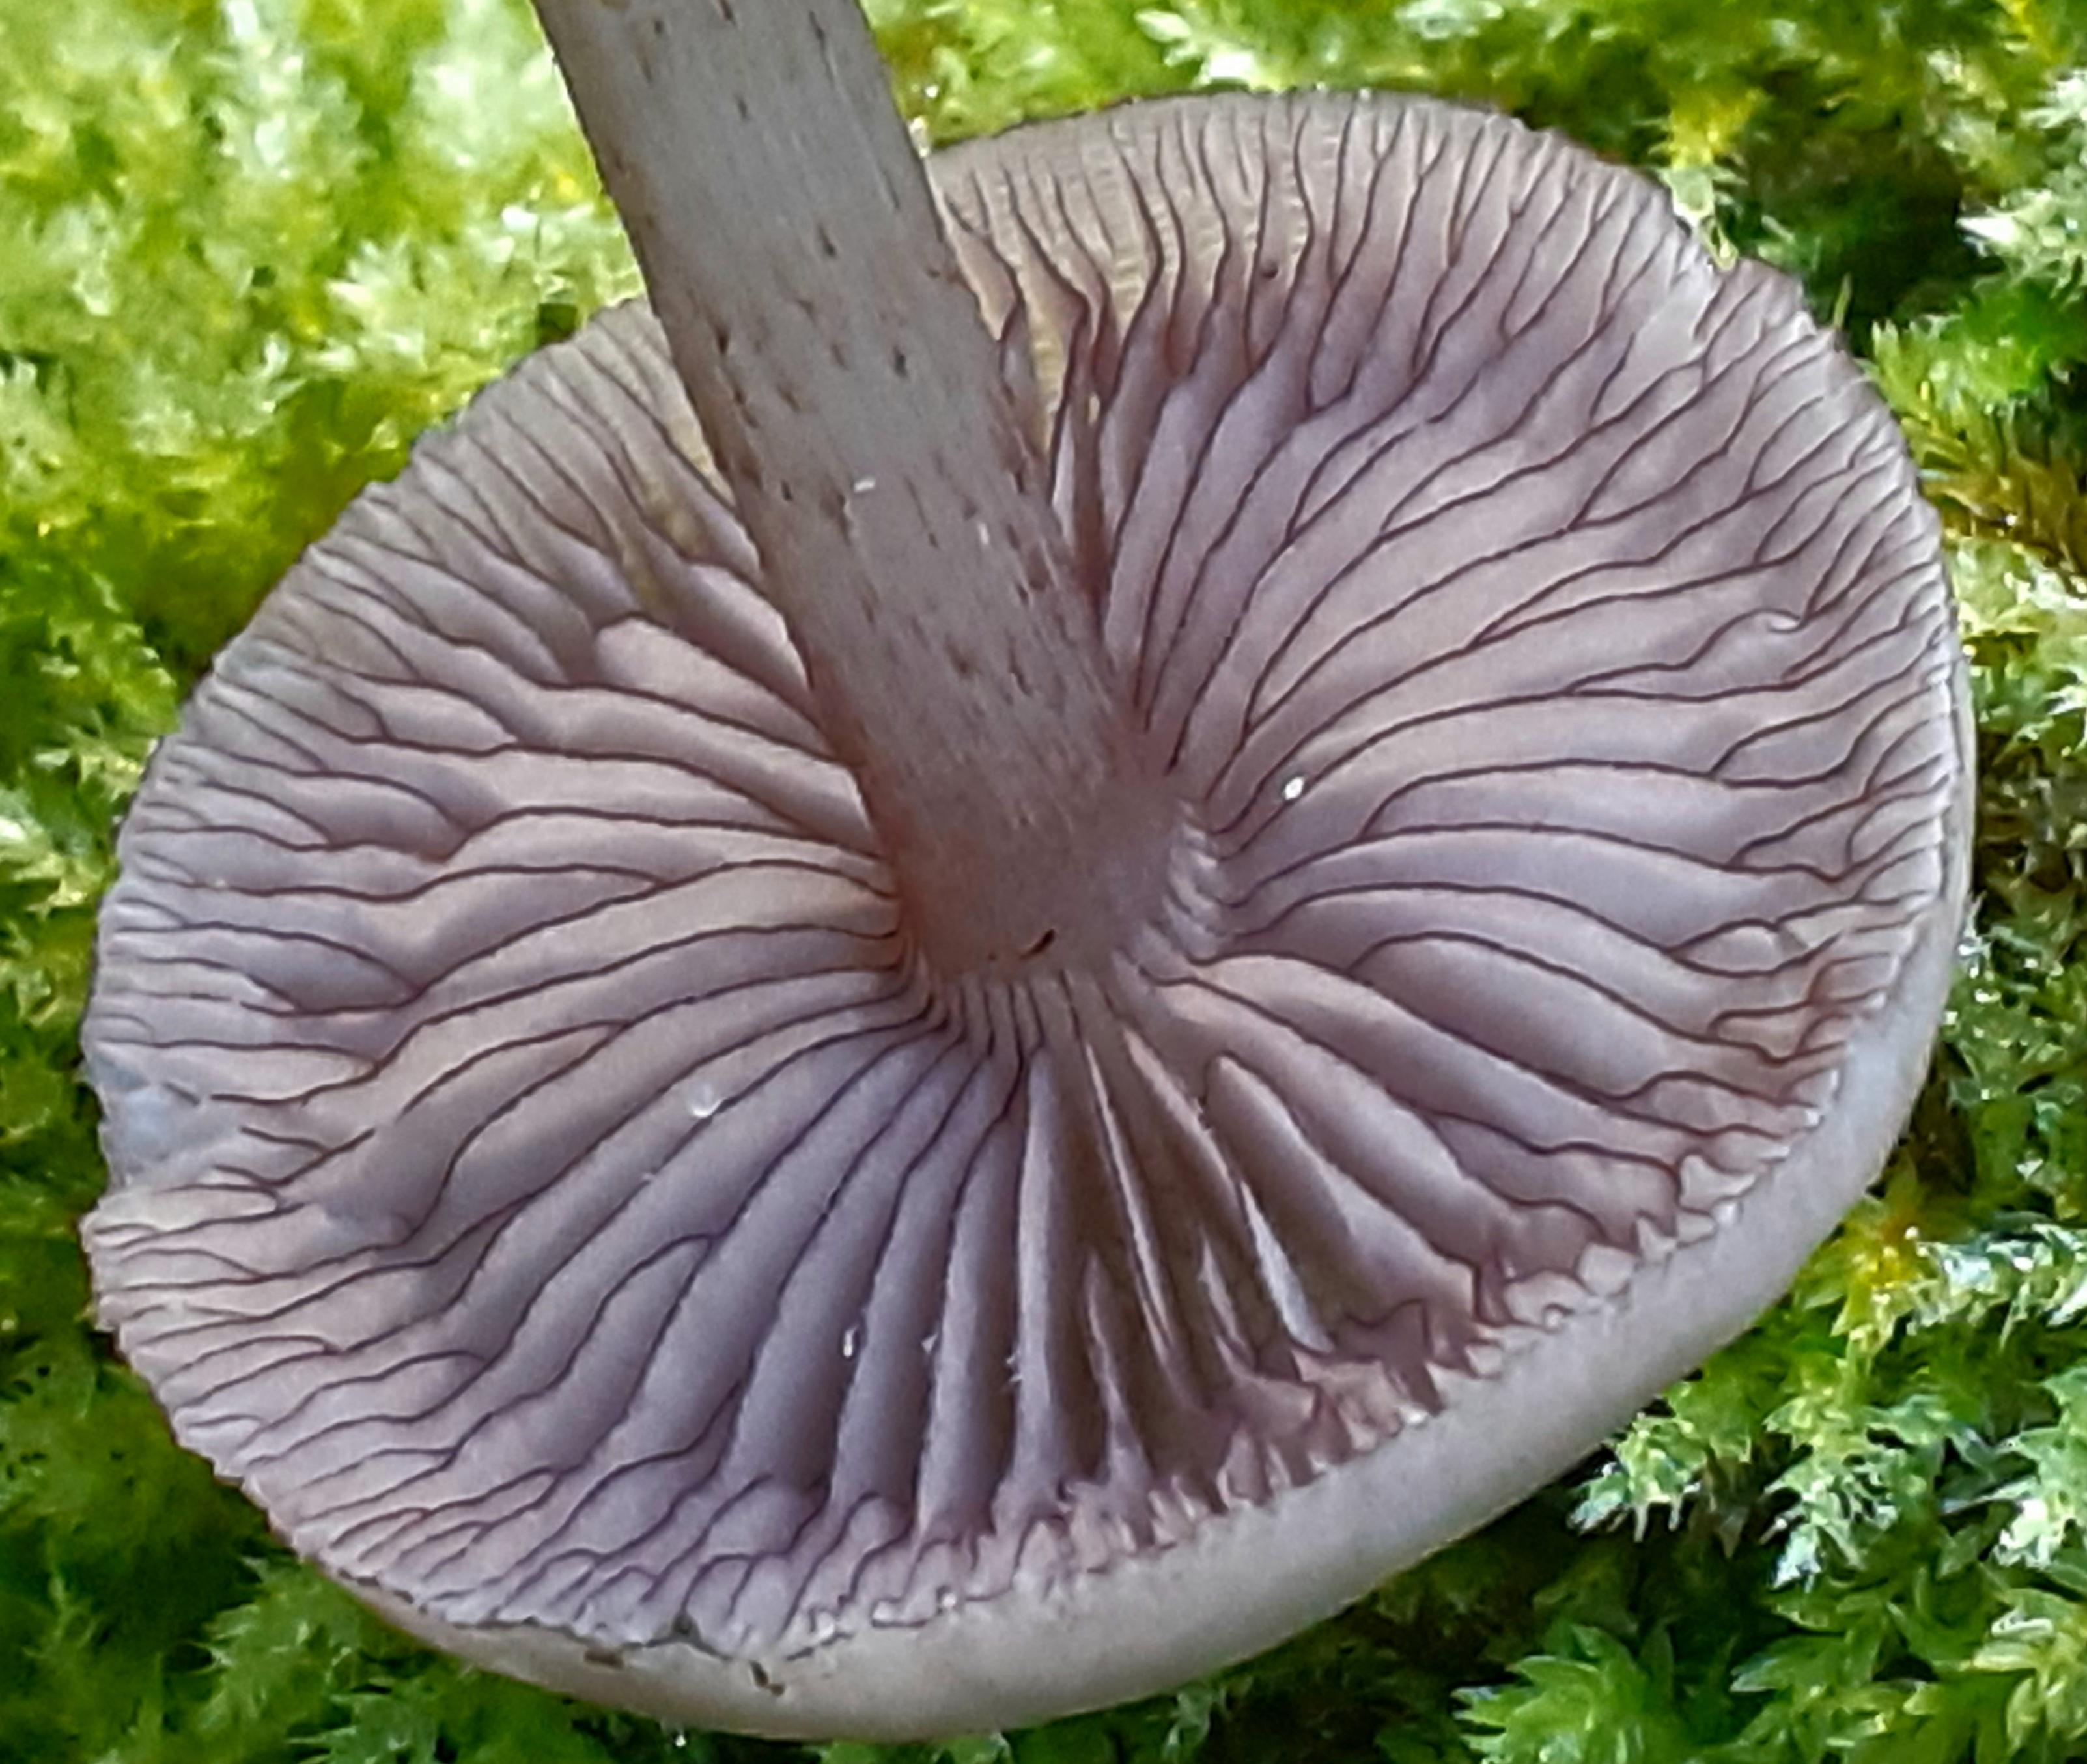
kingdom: Fungi
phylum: Basidiomycota
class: Agaricomycetes
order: Agaricales
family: Mycenaceae
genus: Mycena
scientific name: Mycena pelianthina
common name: mørkbladet huesvamp
